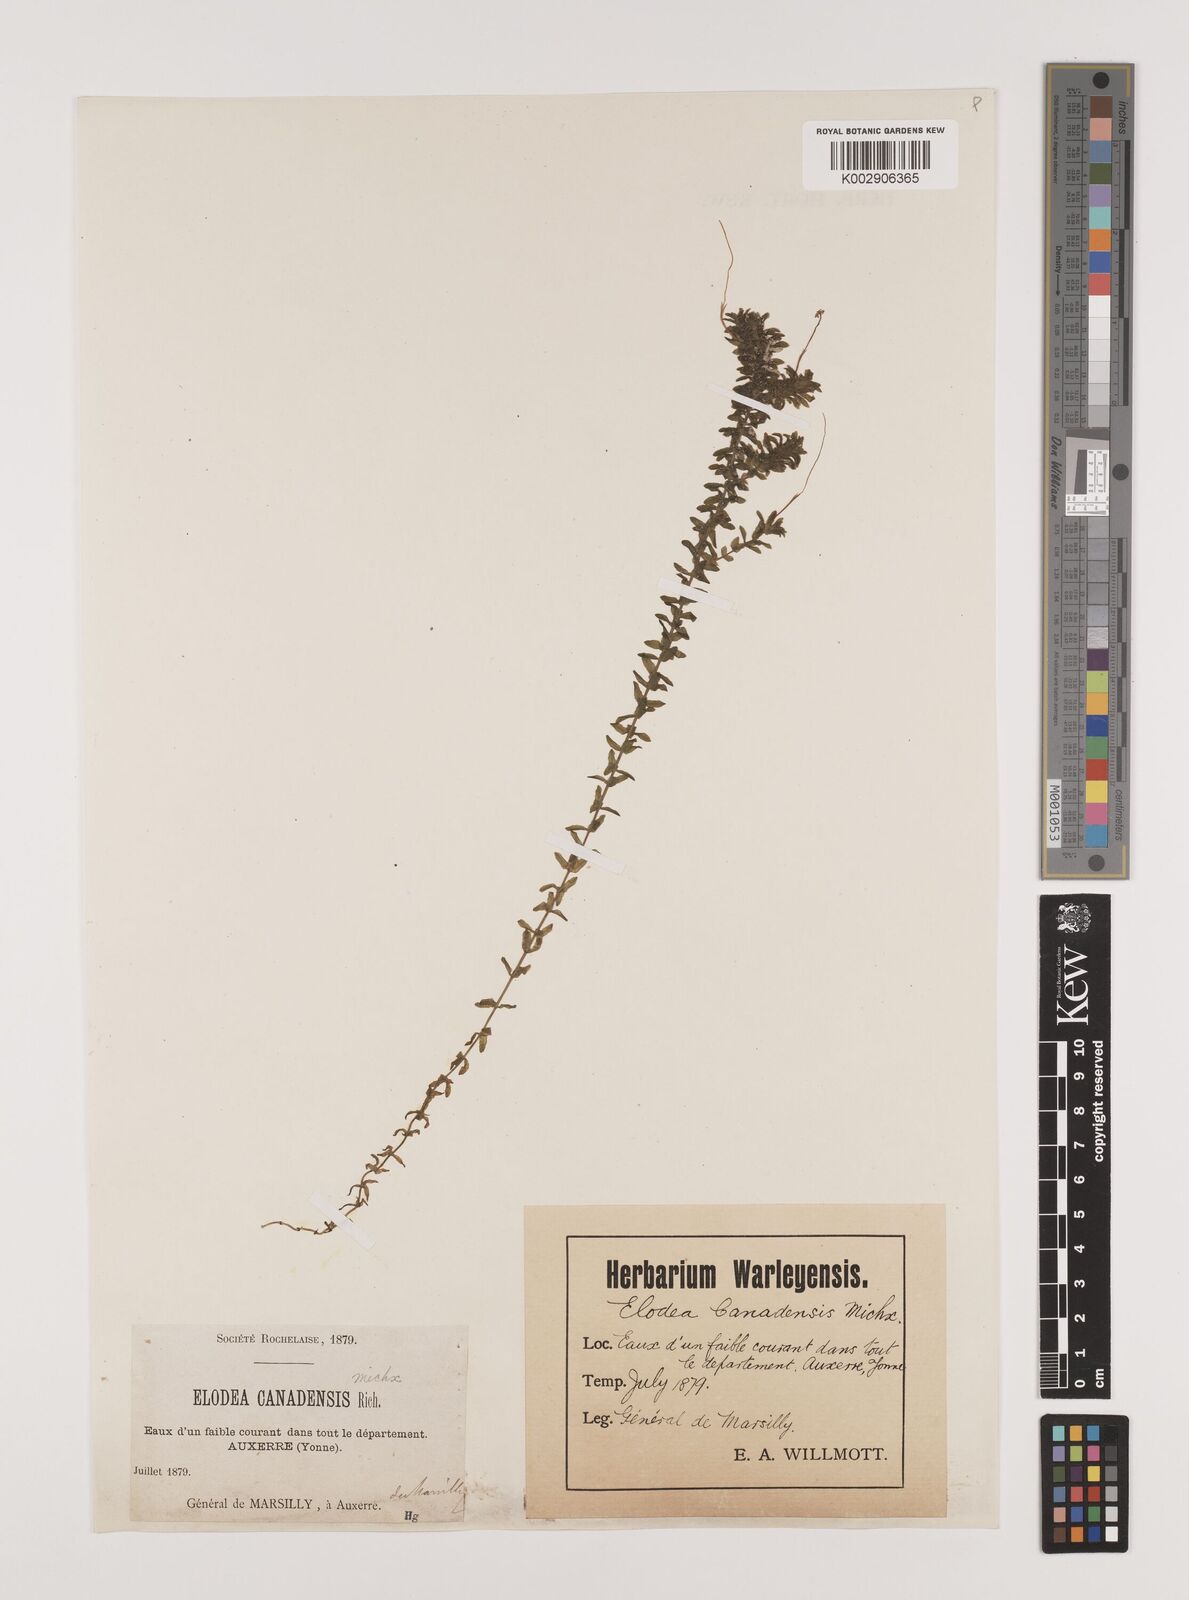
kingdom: Plantae
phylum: Tracheophyta
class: Liliopsida
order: Alismatales
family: Hydrocharitaceae
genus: Elodea
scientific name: Elodea canadensis
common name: Canadian waterweed
